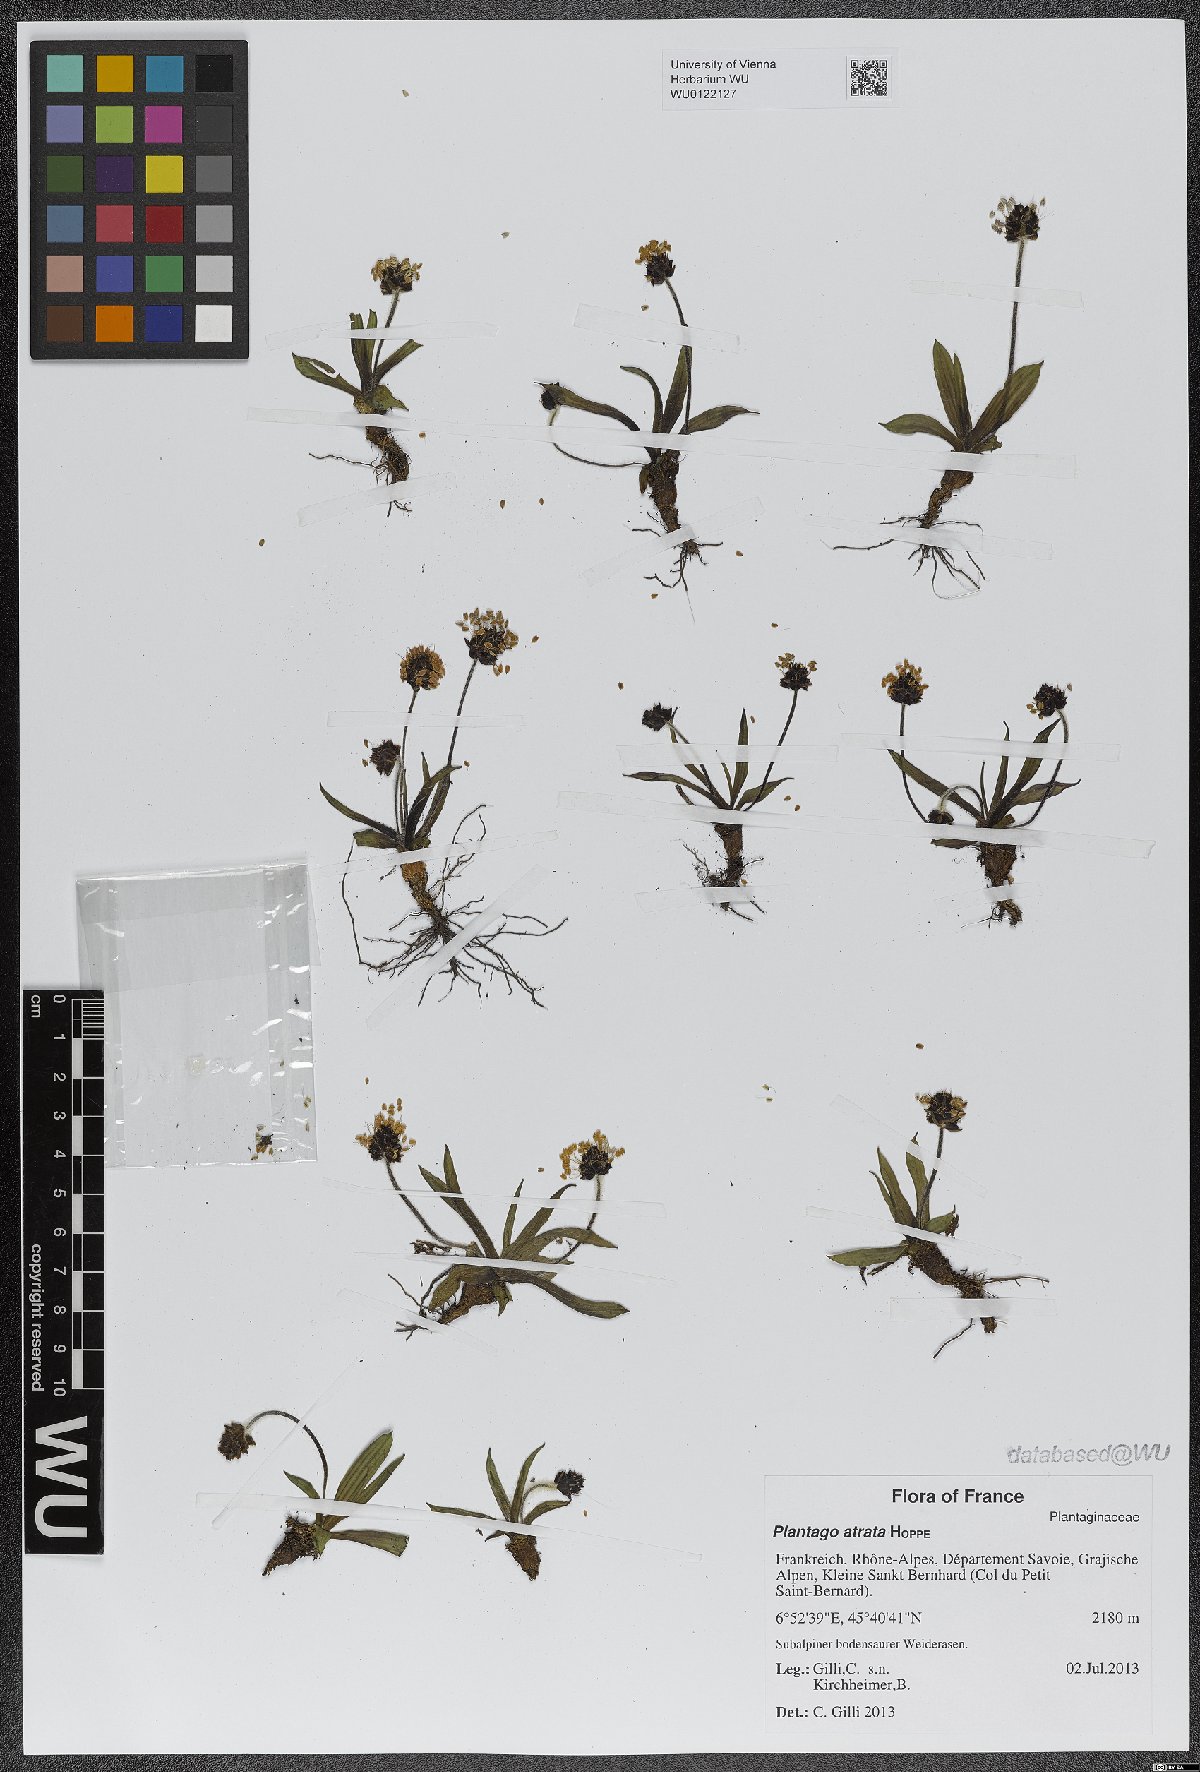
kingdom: Plantae
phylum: Tracheophyta
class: Magnoliopsida
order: Lamiales
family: Plantaginaceae
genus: Plantago
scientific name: Plantago atrata
